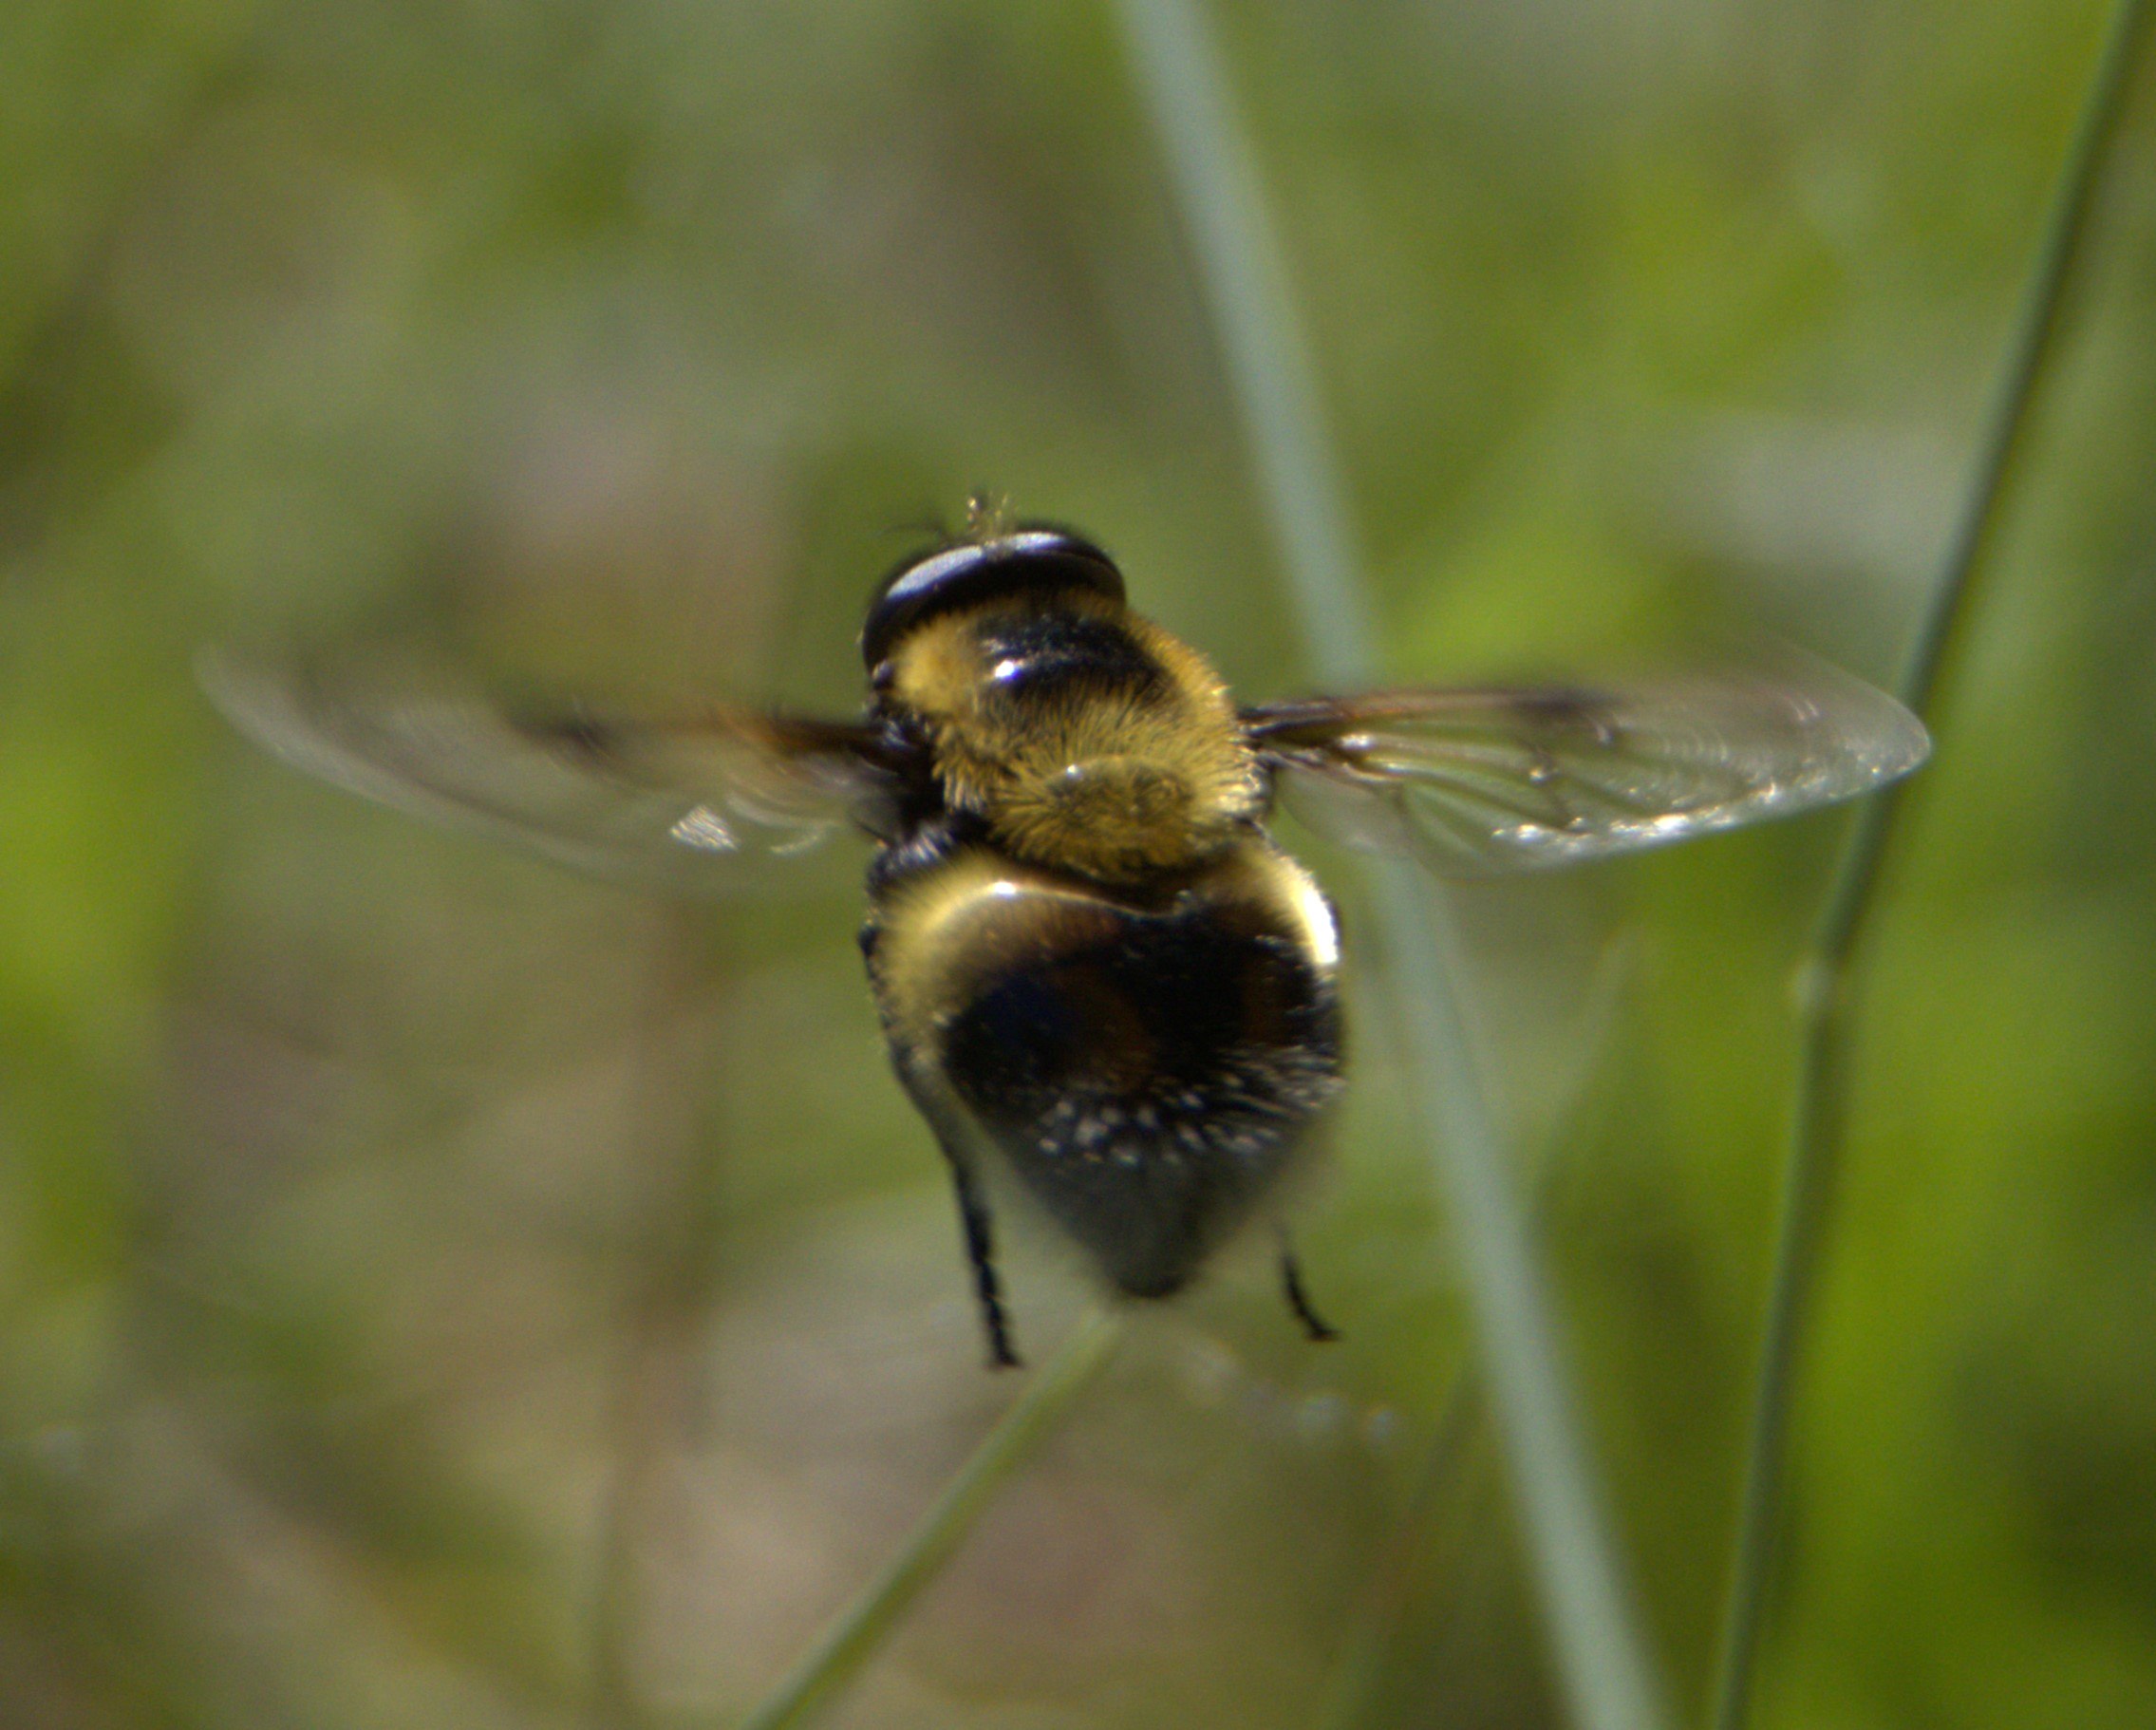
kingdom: Animalia
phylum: Arthropoda
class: Insecta
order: Diptera
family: Syrphidae
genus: Volucella
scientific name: Volucella bombylans
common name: Foranderlig humlesvirreflue
